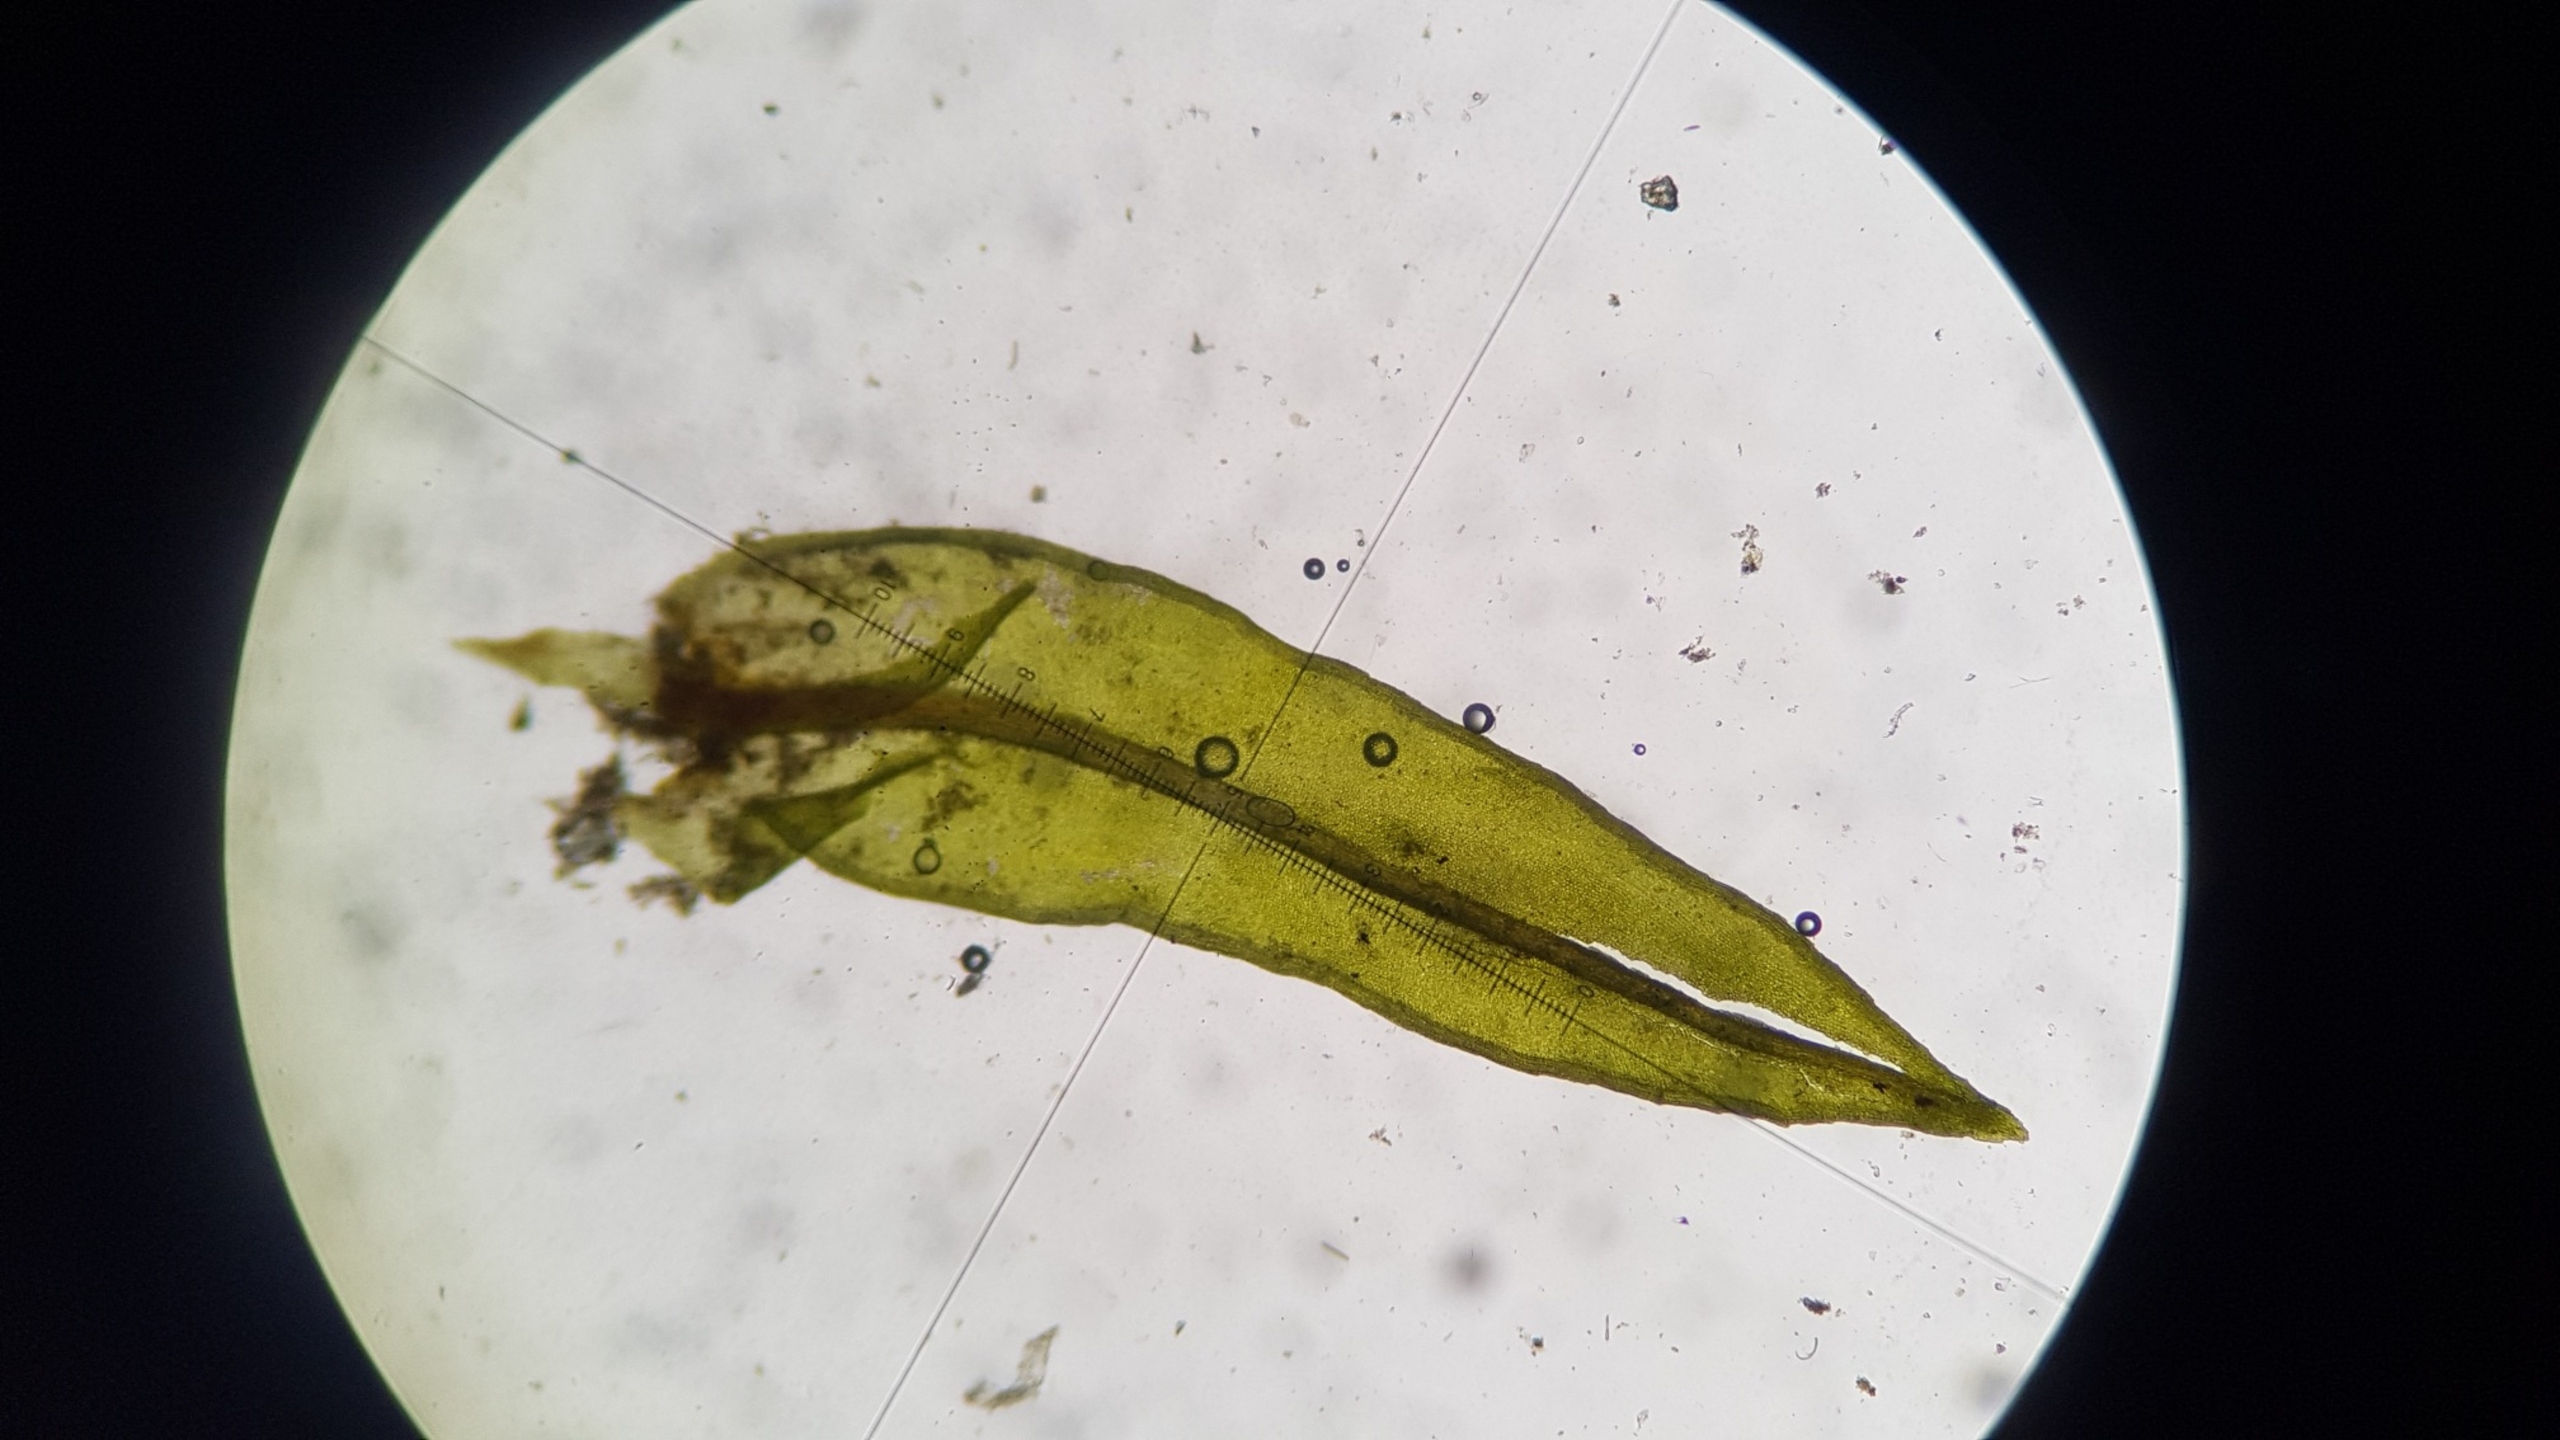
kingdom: Plantae
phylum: Bryophyta
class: Bryopsida
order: Pottiales
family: Pottiaceae
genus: Cinclidotus
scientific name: Cinclidotus fontinaloides
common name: Kilde-rammeblad
